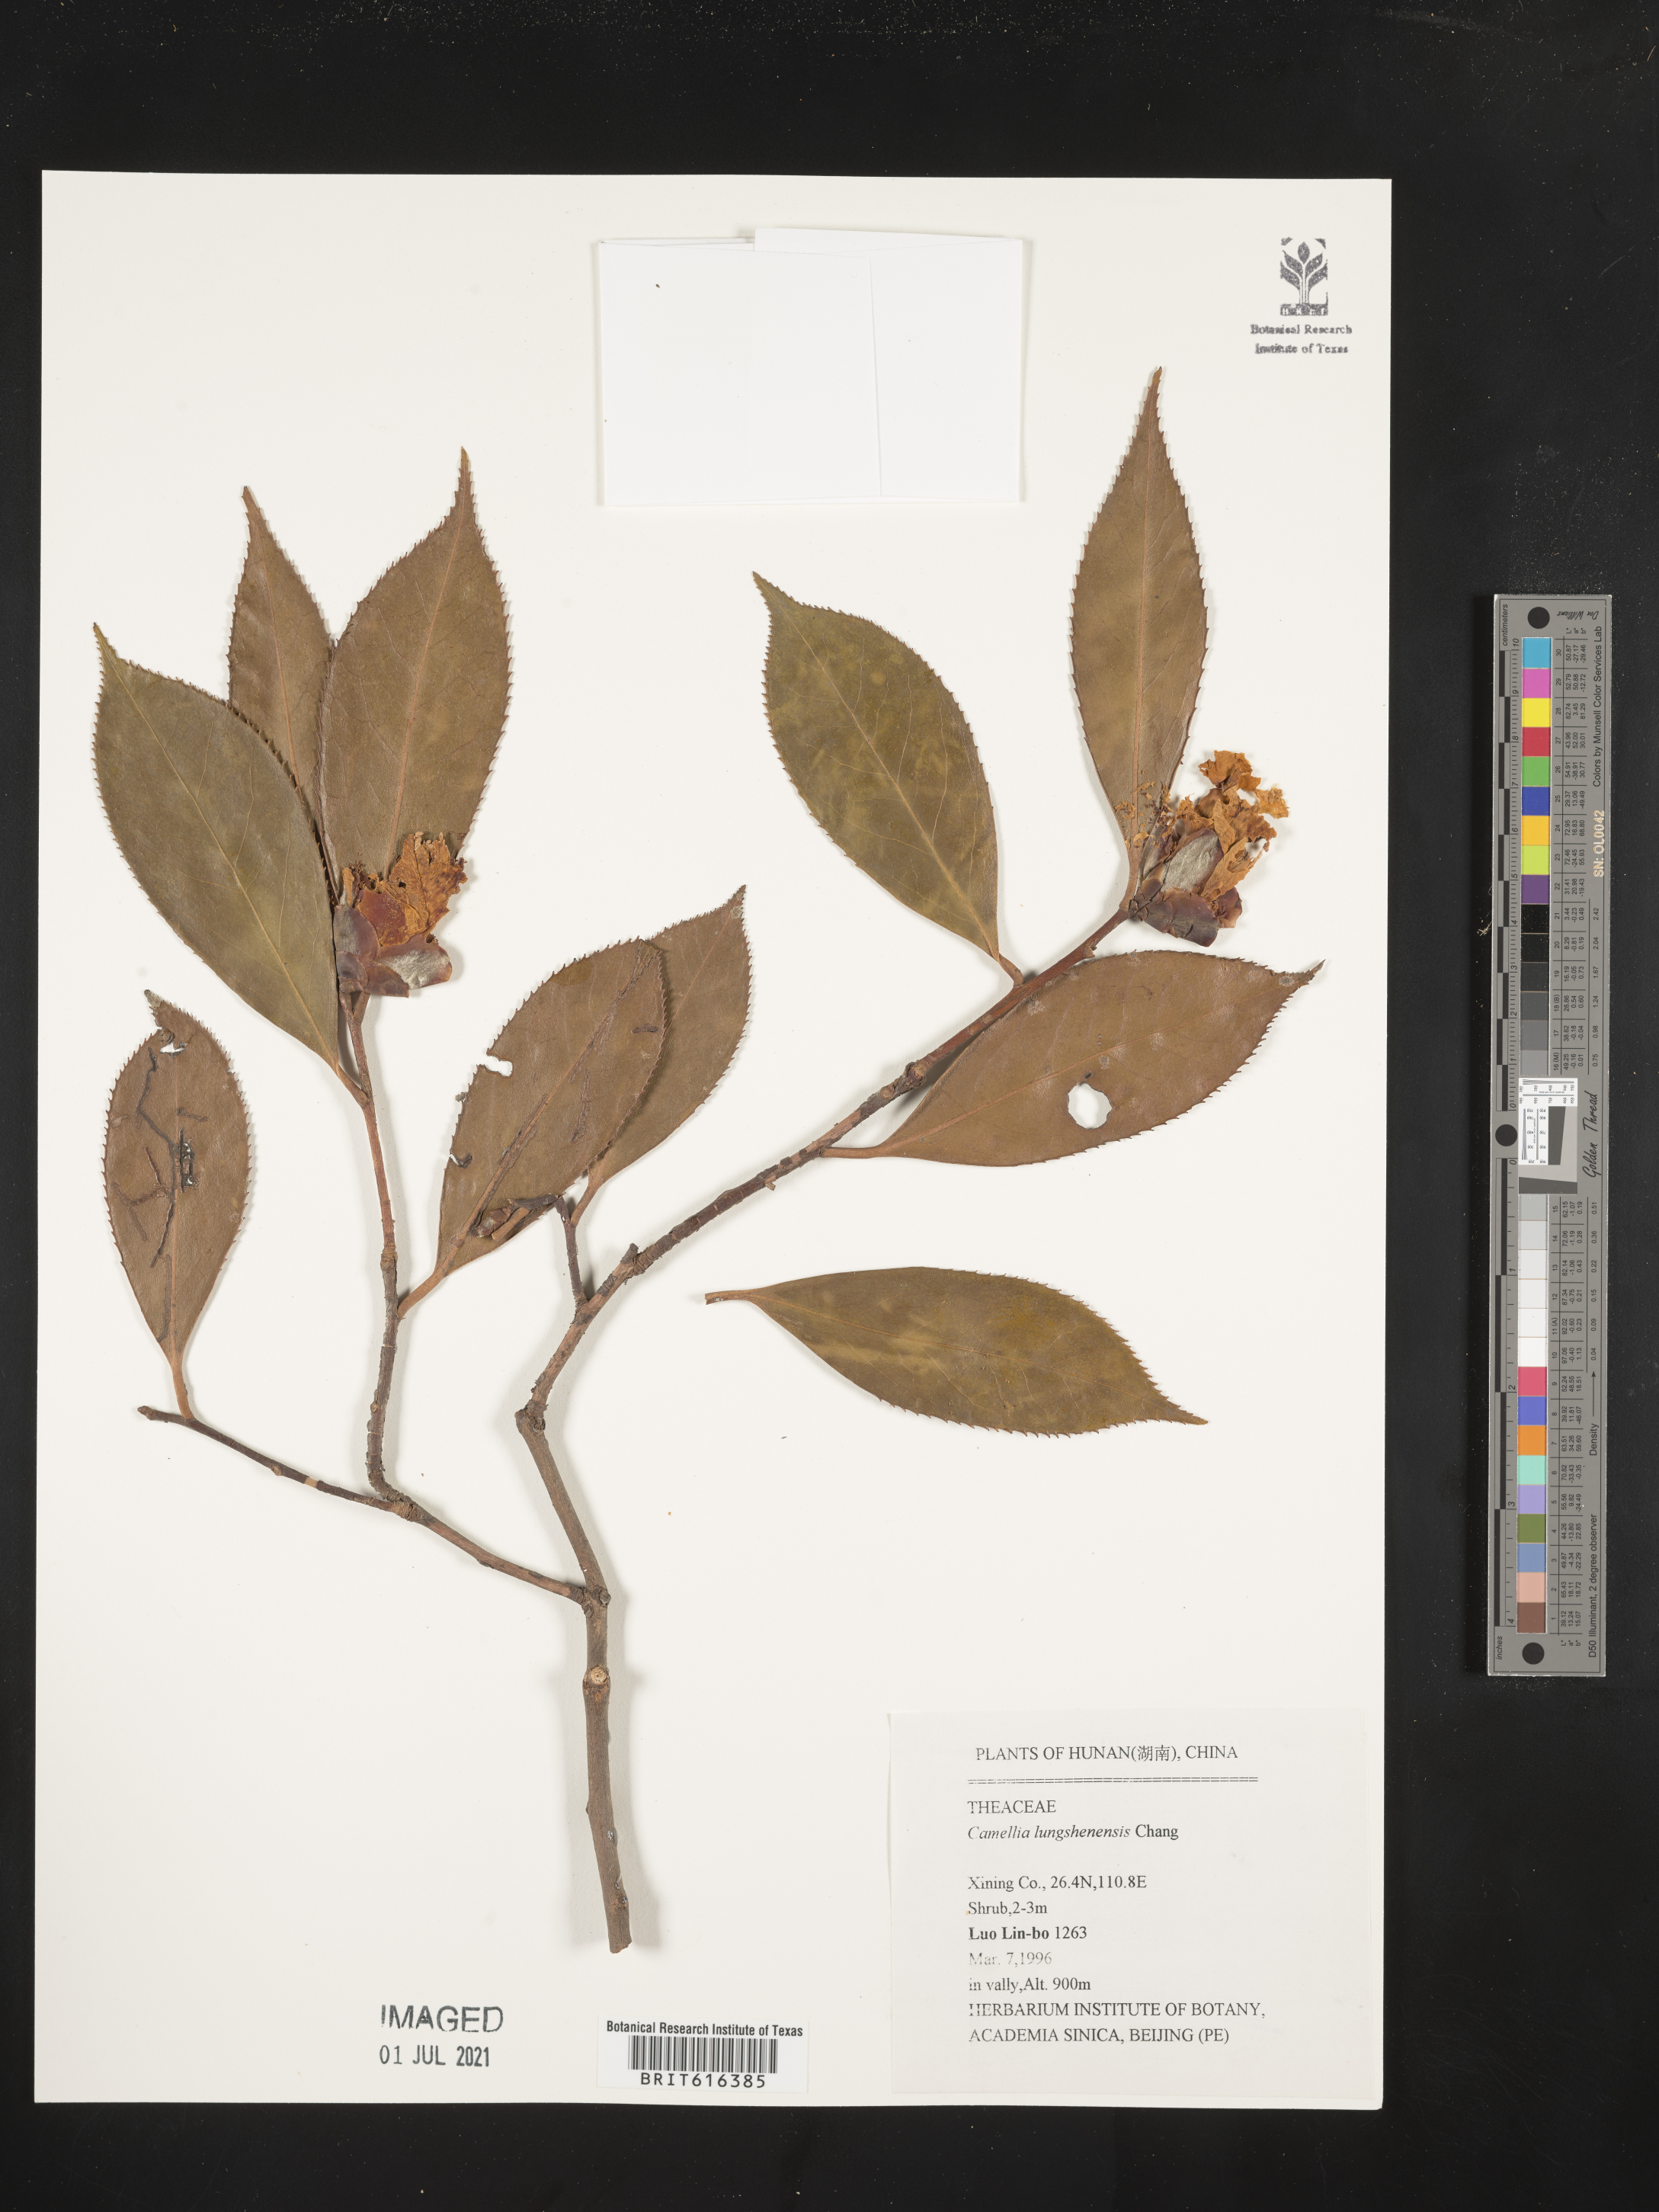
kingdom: Plantae
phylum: Tracheophyta
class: Magnoliopsida
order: Ericales
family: Theaceae
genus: Camellia
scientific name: Camellia pitardii
